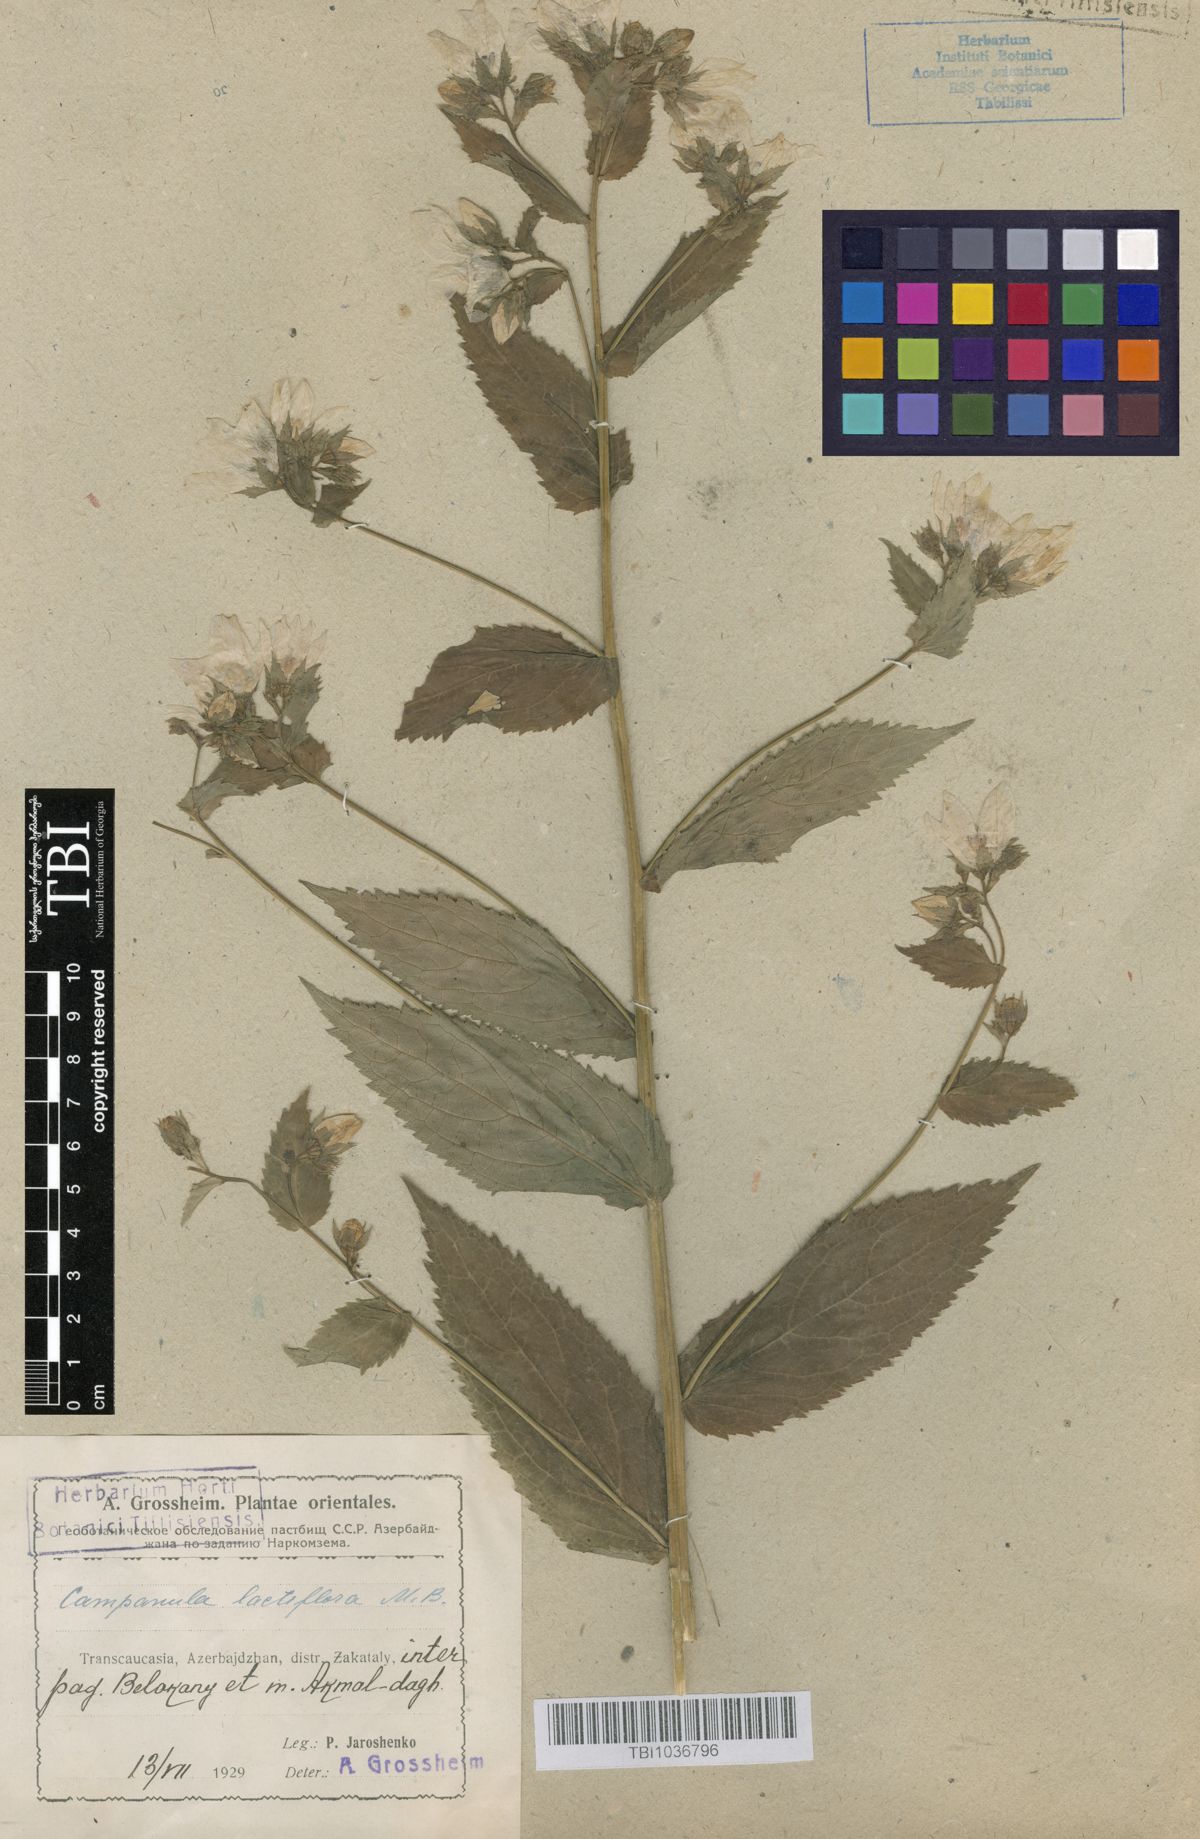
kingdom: Plantae
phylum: Tracheophyta
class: Magnoliopsida
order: Asterales
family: Campanulaceae
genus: Campanula
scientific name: Campanula lactiflora
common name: Milky bellflower
